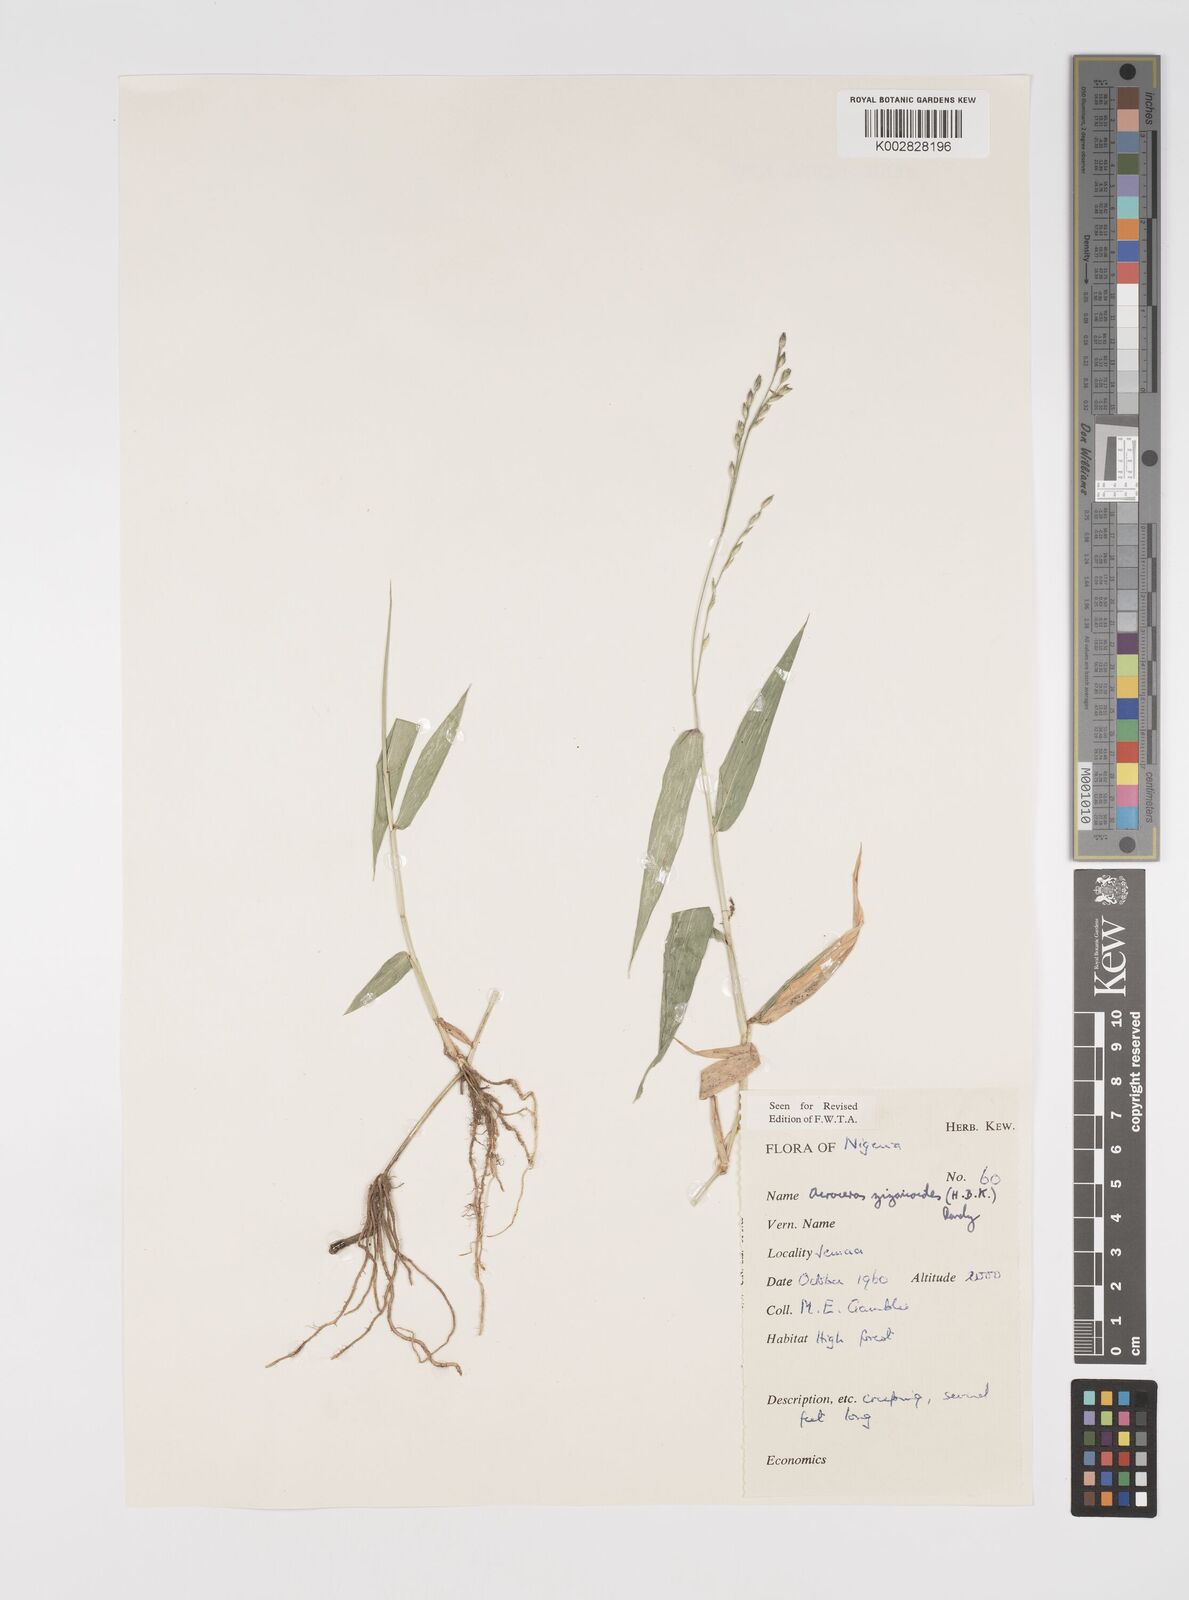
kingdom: Plantae
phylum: Tracheophyta
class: Liliopsida
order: Poales
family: Poaceae
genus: Acroceras
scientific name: Acroceras zizanioides
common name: Oat grass
